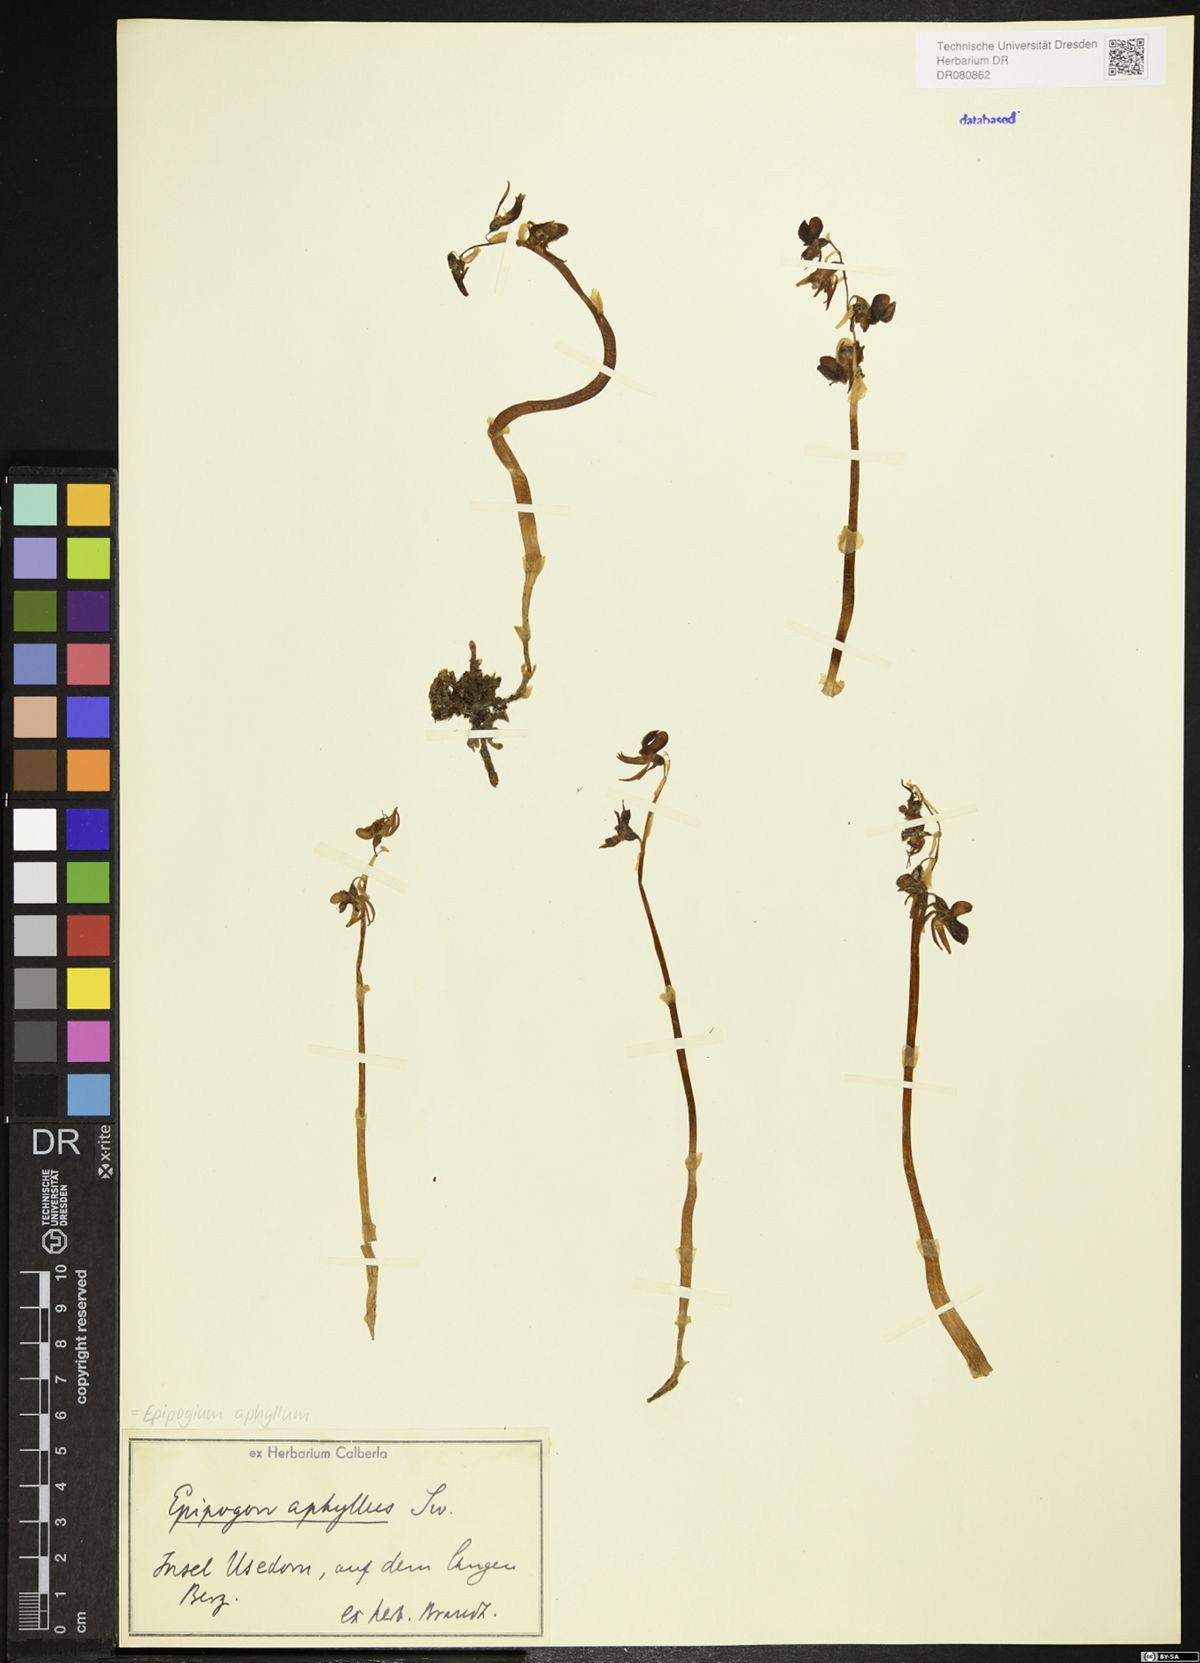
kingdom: Plantae
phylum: Tracheophyta
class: Liliopsida
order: Asparagales
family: Orchidaceae
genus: Epipogium
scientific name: Epipogium aphyllum
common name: Ghost orchid
